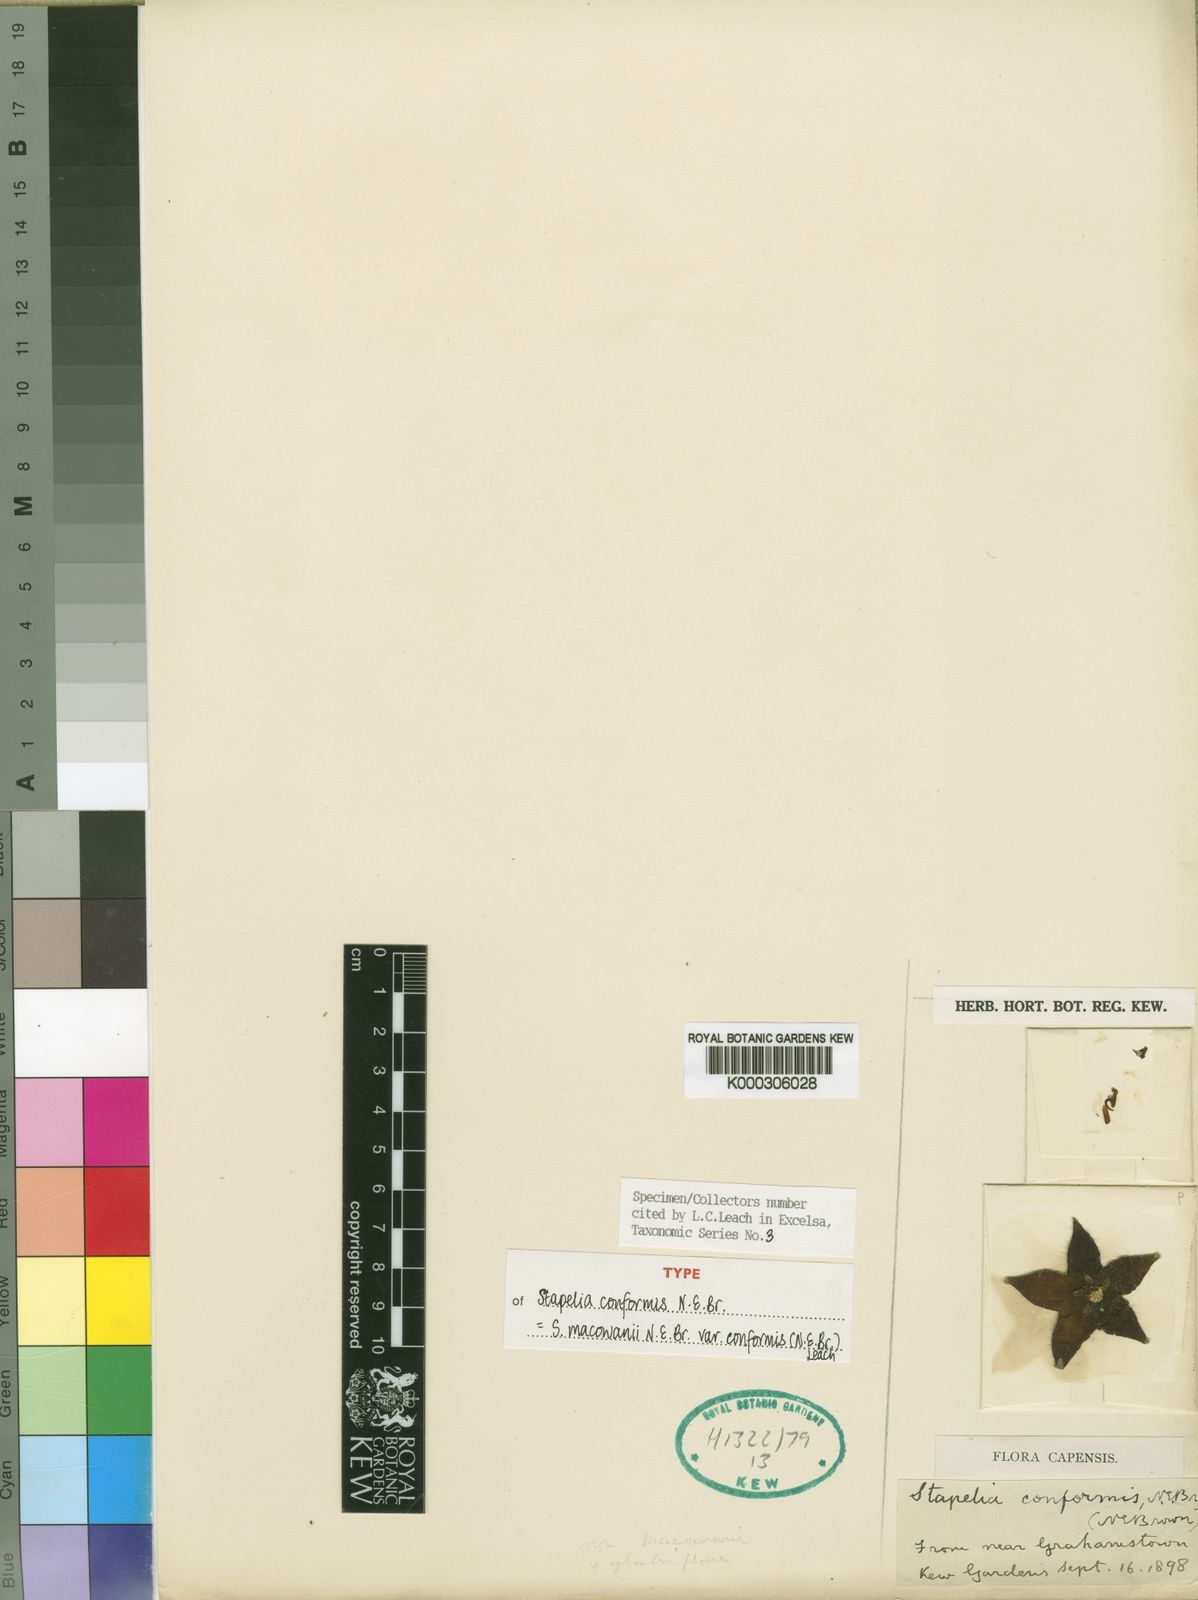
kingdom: Plantae
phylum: Tracheophyta
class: Magnoliopsida
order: Gentianales
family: Apocynaceae
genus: Ceropegia
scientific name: Ceropegia grandiflora
